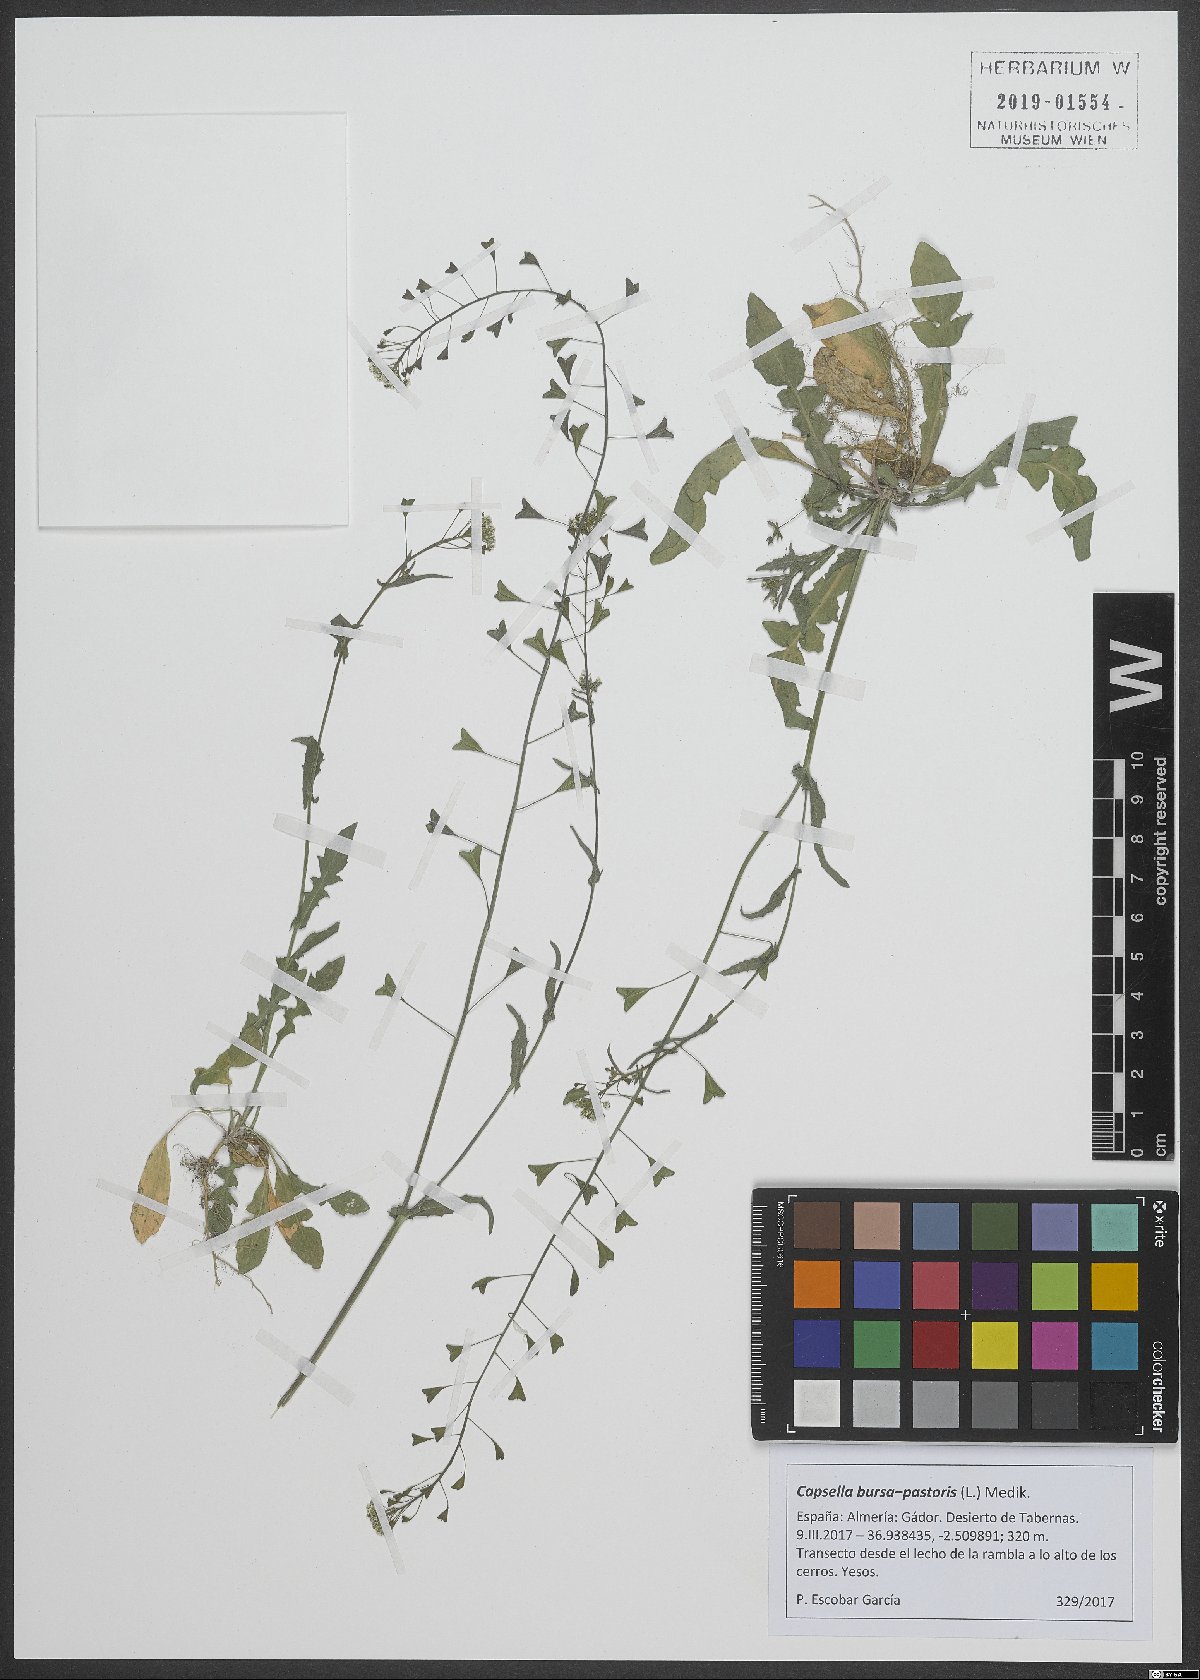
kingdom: Plantae
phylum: Tracheophyta
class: Magnoliopsida
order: Brassicales
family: Brassicaceae
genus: Capsella
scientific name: Capsella bursa-pastoris
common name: Shepherd's purse
